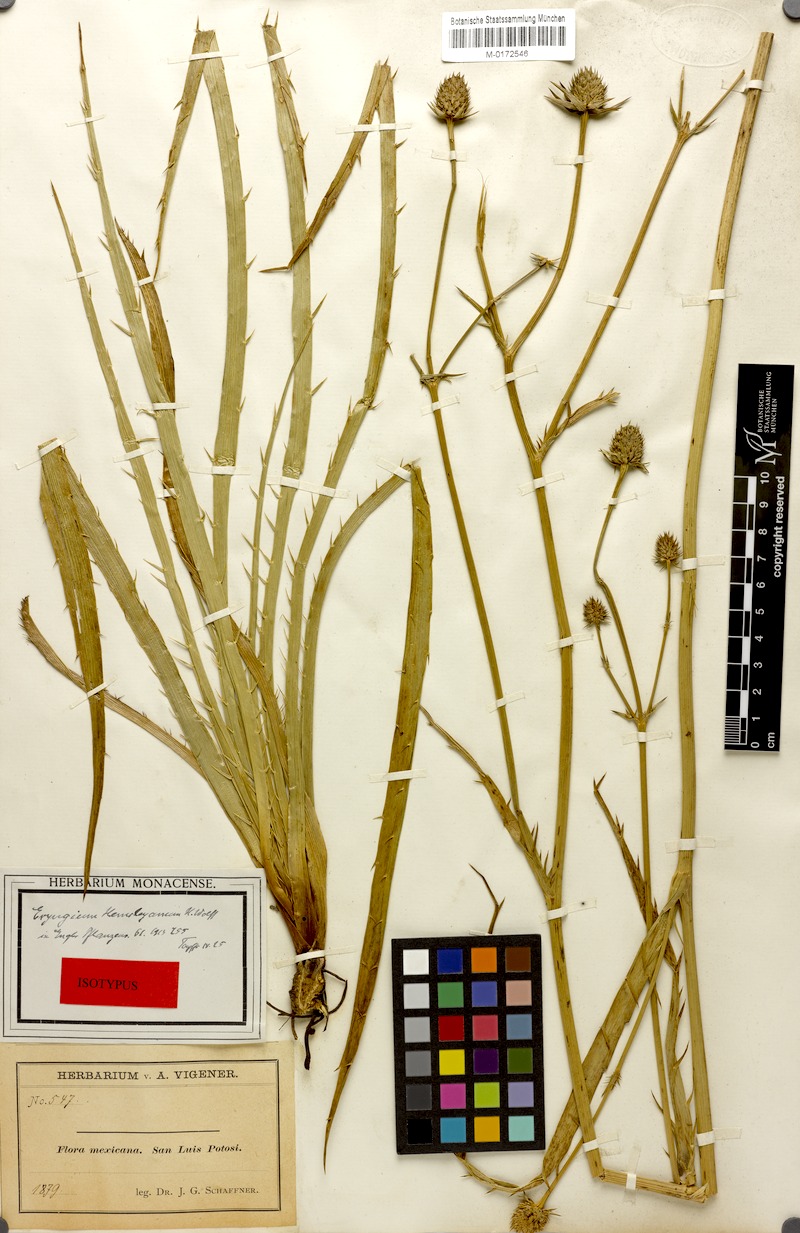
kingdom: Plantae
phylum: Tracheophyta
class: Magnoliopsida
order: Apiales
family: Apiaceae
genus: Eryngium
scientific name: Eryngium hemsleyanum
